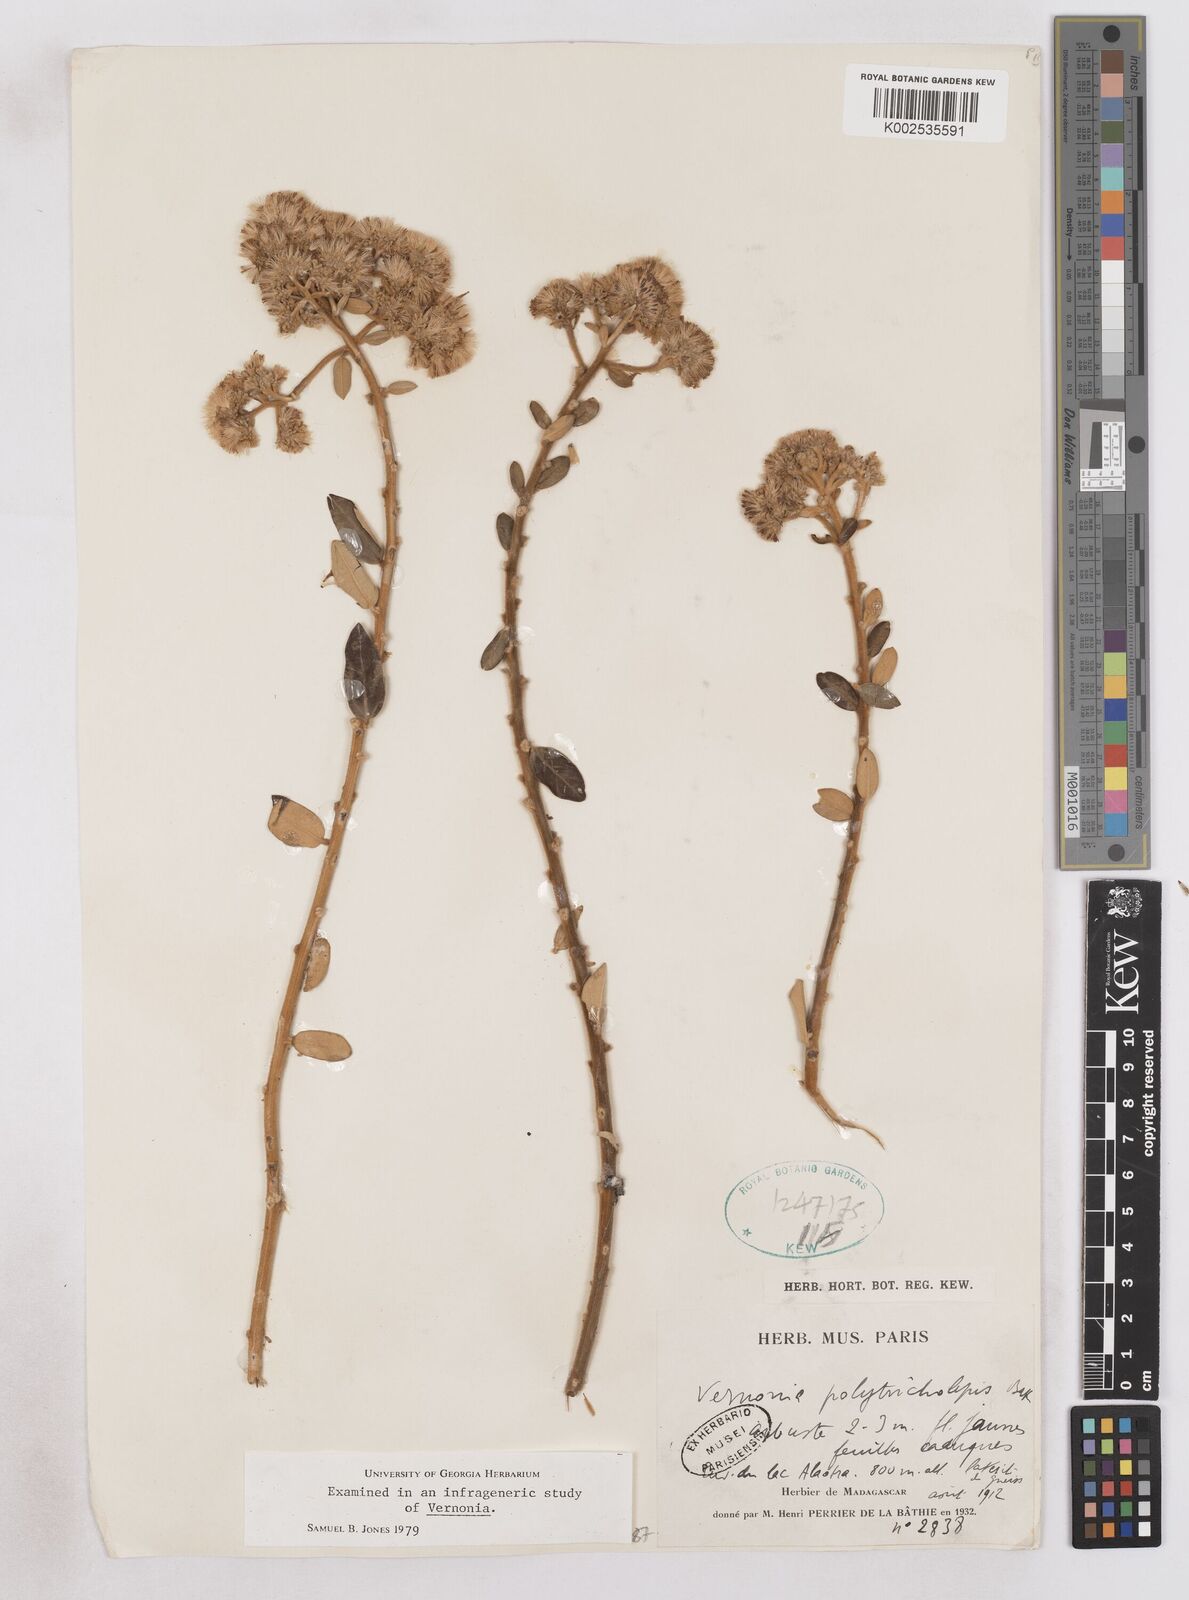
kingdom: Plantae
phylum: Tracheophyta
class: Magnoliopsida
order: Asterales
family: Asteraceae
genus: Distephanus
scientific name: Distephanus polytricholepis
